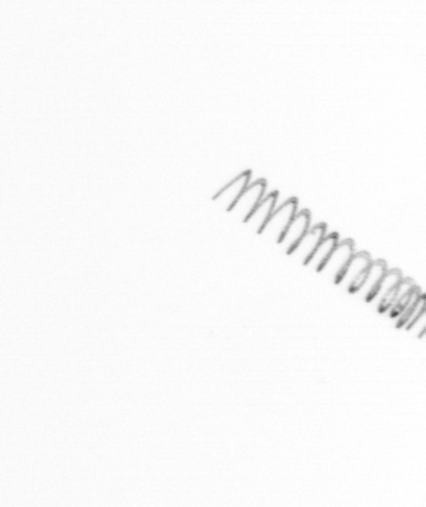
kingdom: Chromista
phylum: Ochrophyta
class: Bacillariophyceae
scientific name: Bacillariophyceae
